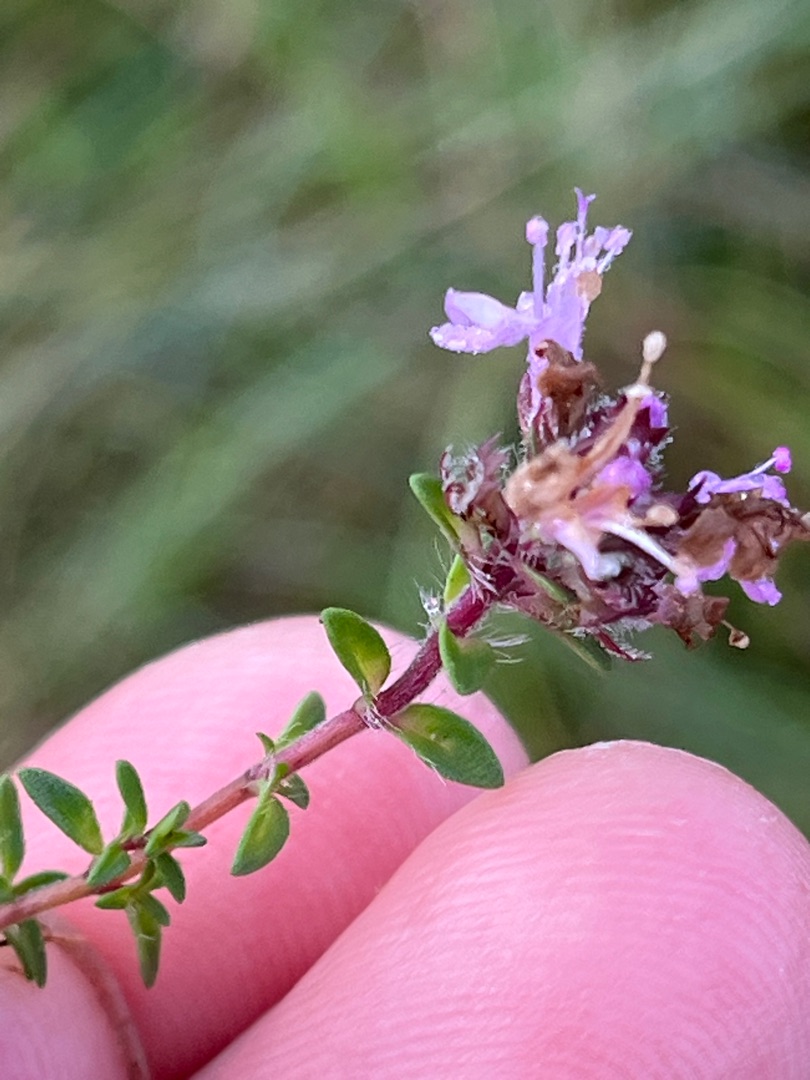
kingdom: Plantae
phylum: Tracheophyta
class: Magnoliopsida
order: Lamiales
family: Lamiaceae
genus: Thymus
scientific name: Thymus serpyllum
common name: Smalbladet timian
